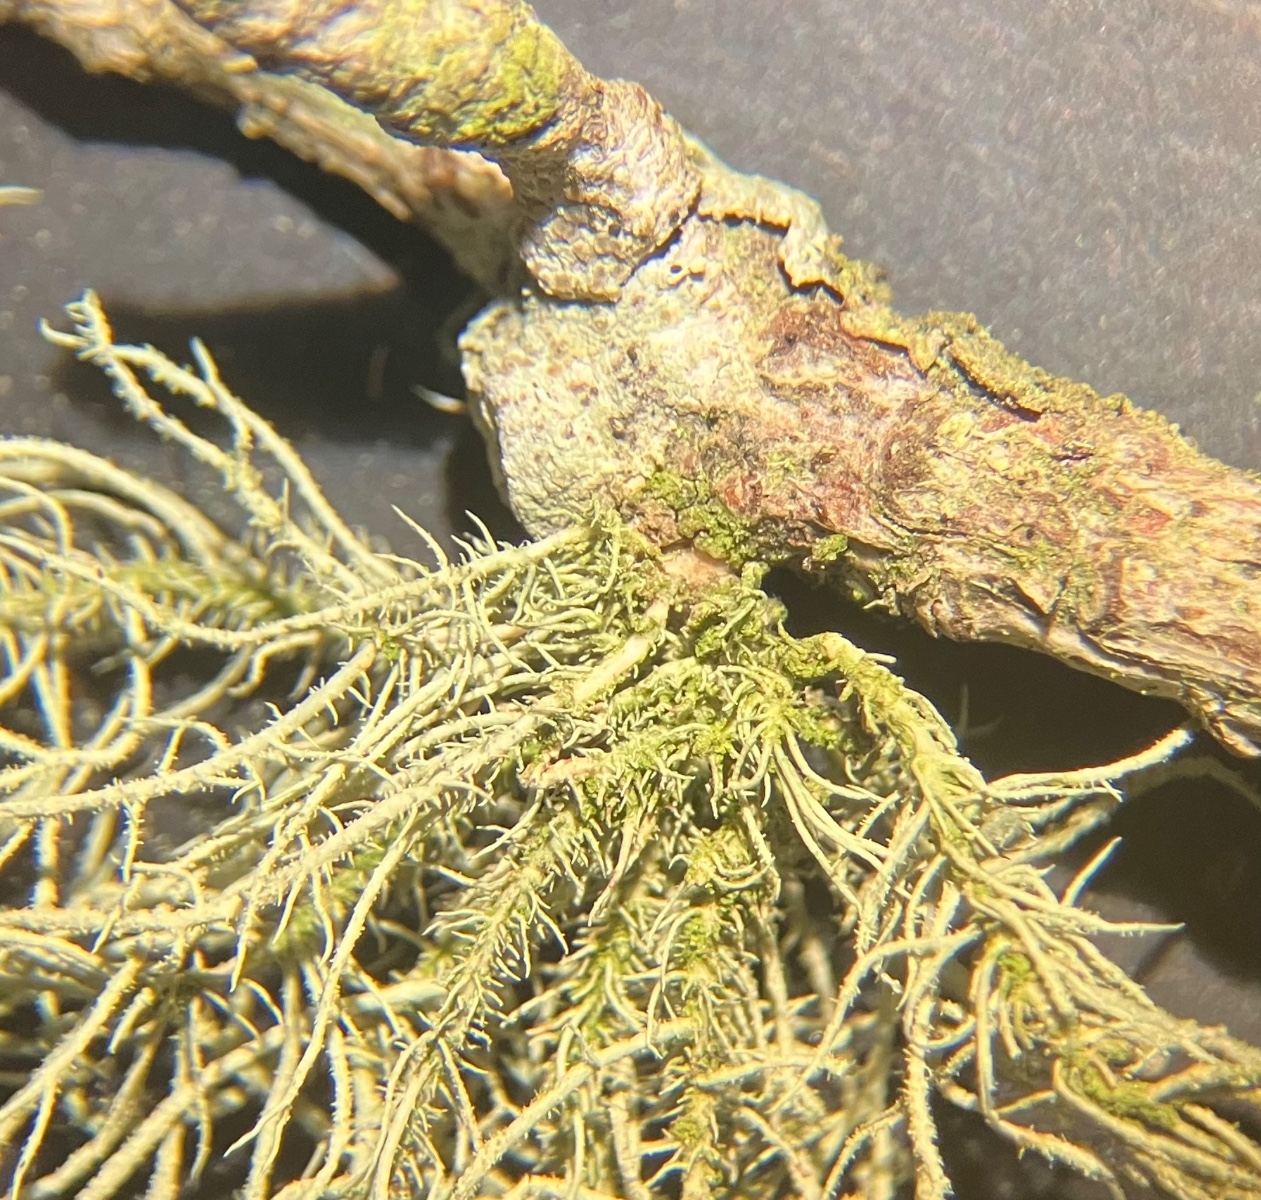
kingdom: Fungi
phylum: Ascomycota
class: Lecanoromycetes
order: Lecanorales
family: Parmeliaceae
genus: Usnea
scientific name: Usnea hirta
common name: liden skæglav
